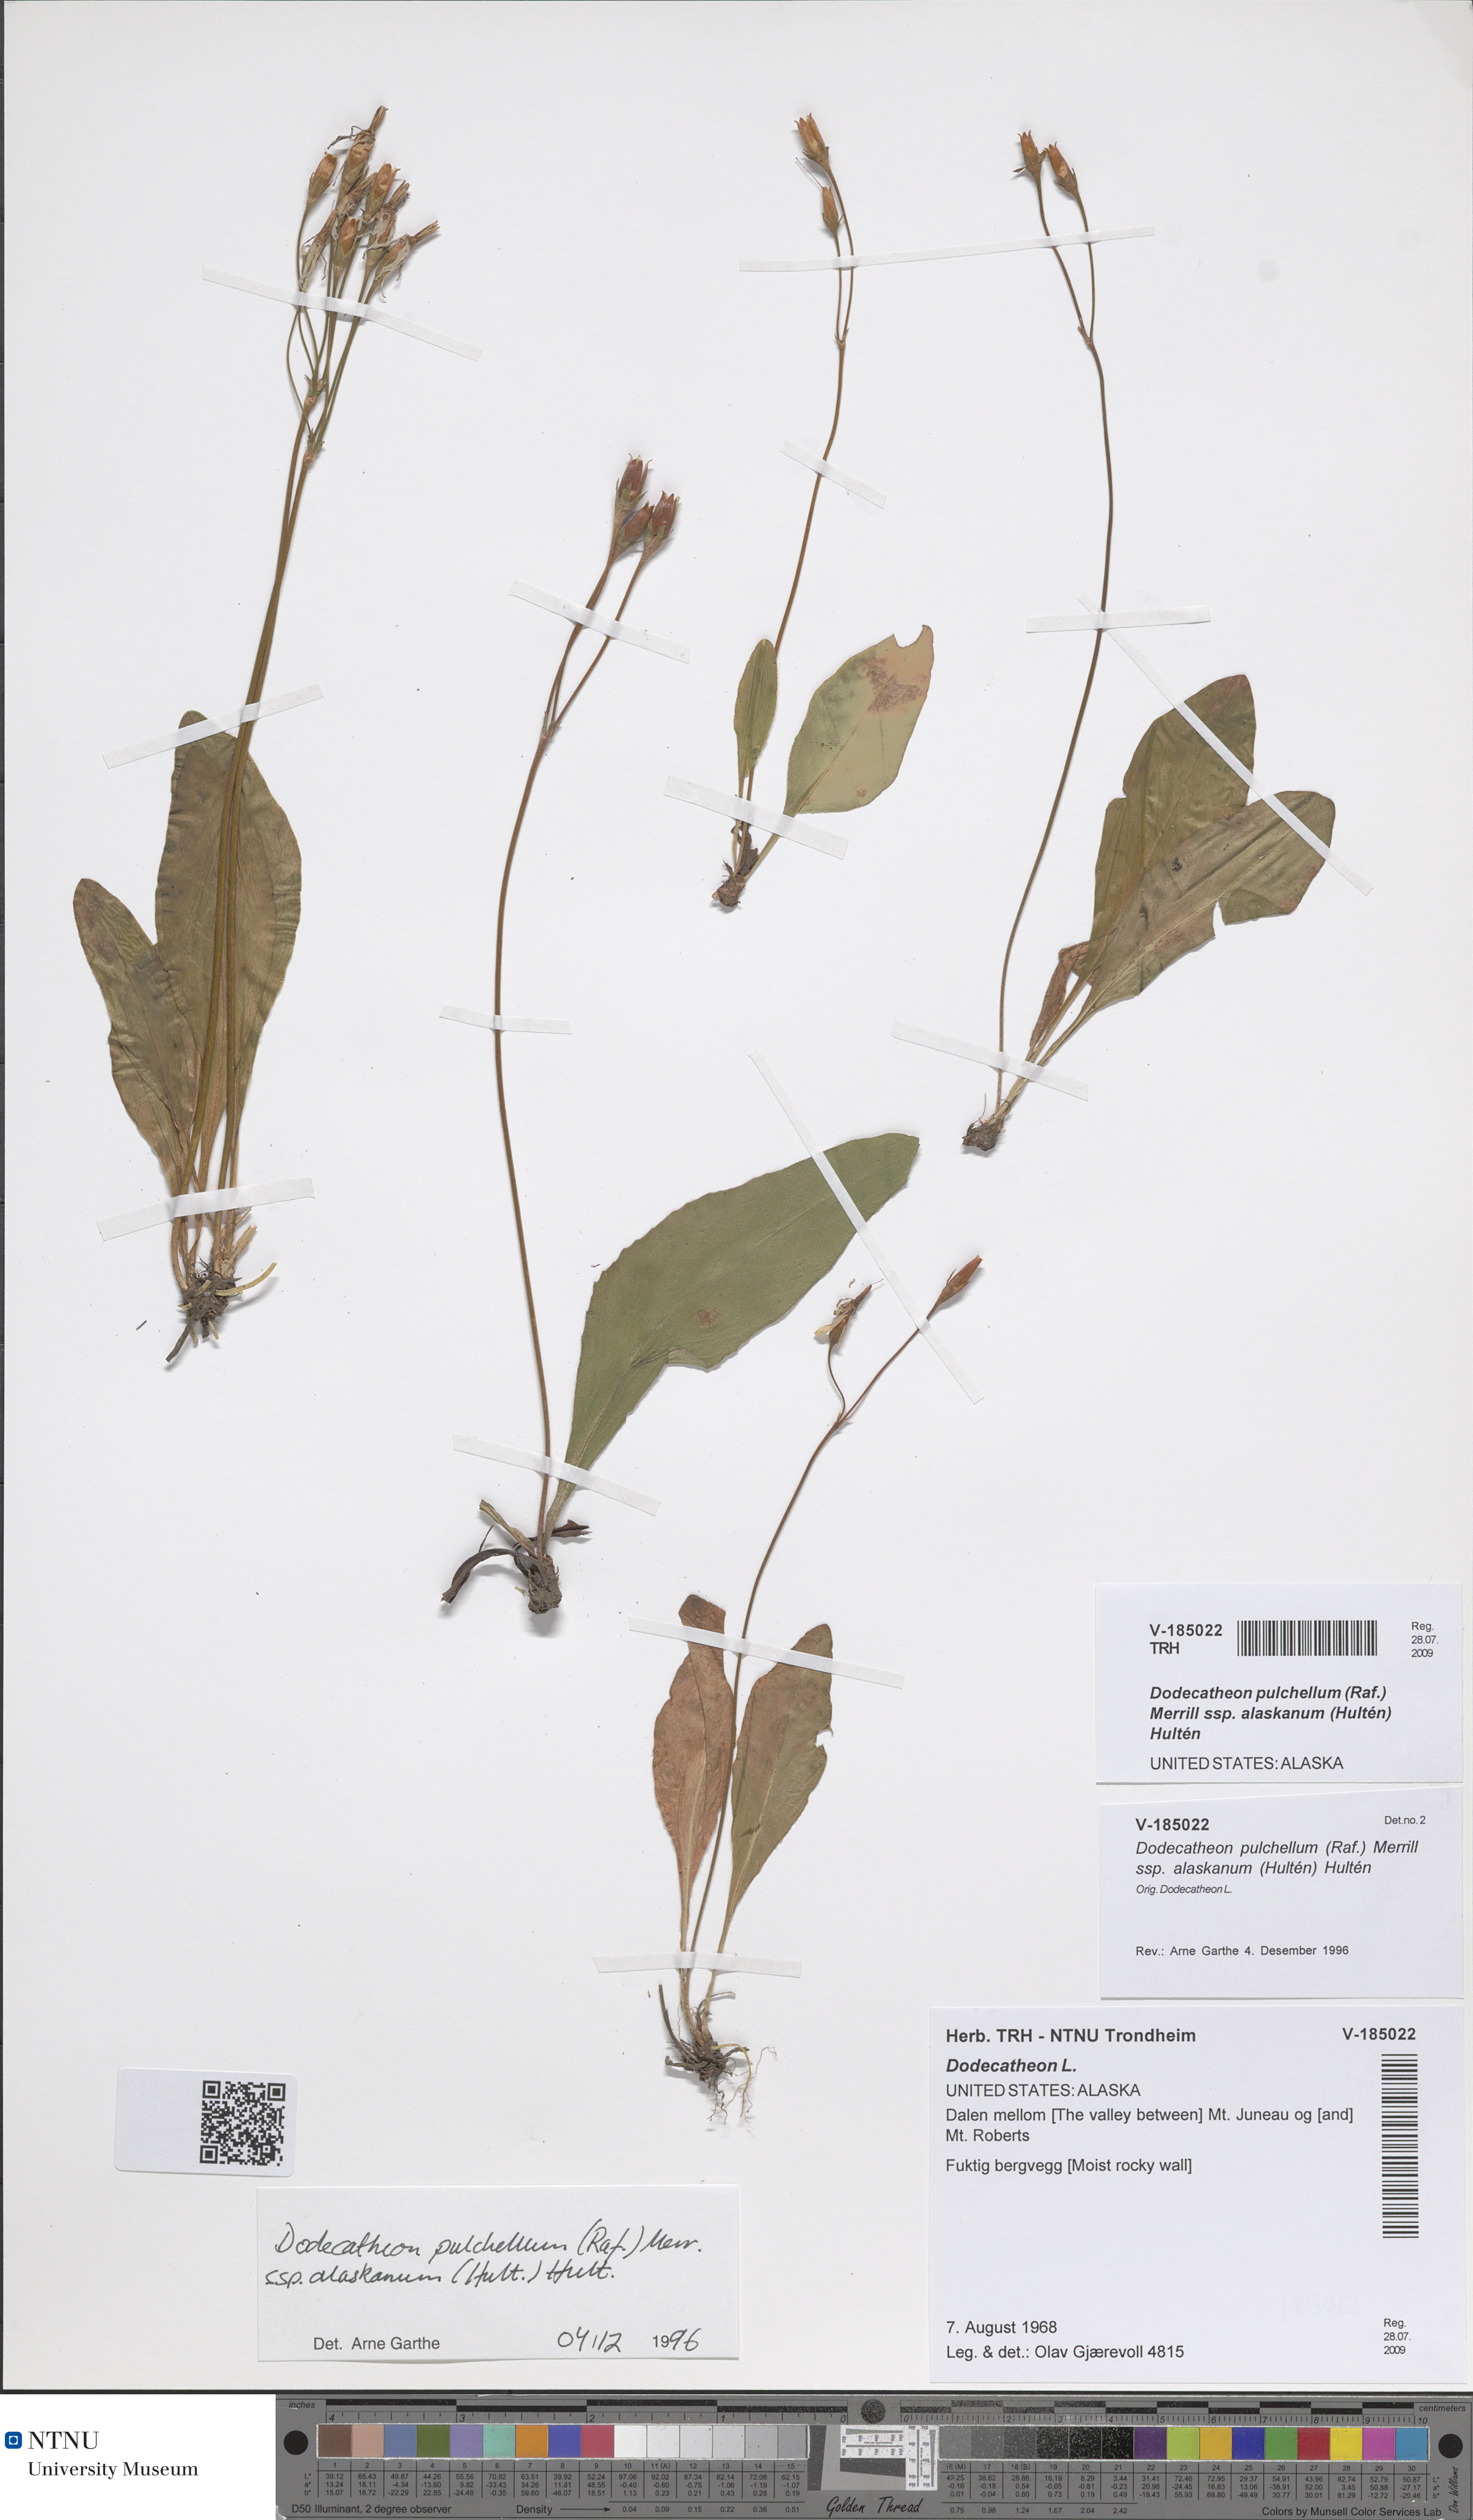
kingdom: Plantae
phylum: Tracheophyta
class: Magnoliopsida
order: Ericales
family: Primulaceae
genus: Dodecatheon
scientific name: Dodecatheon pulchellum
